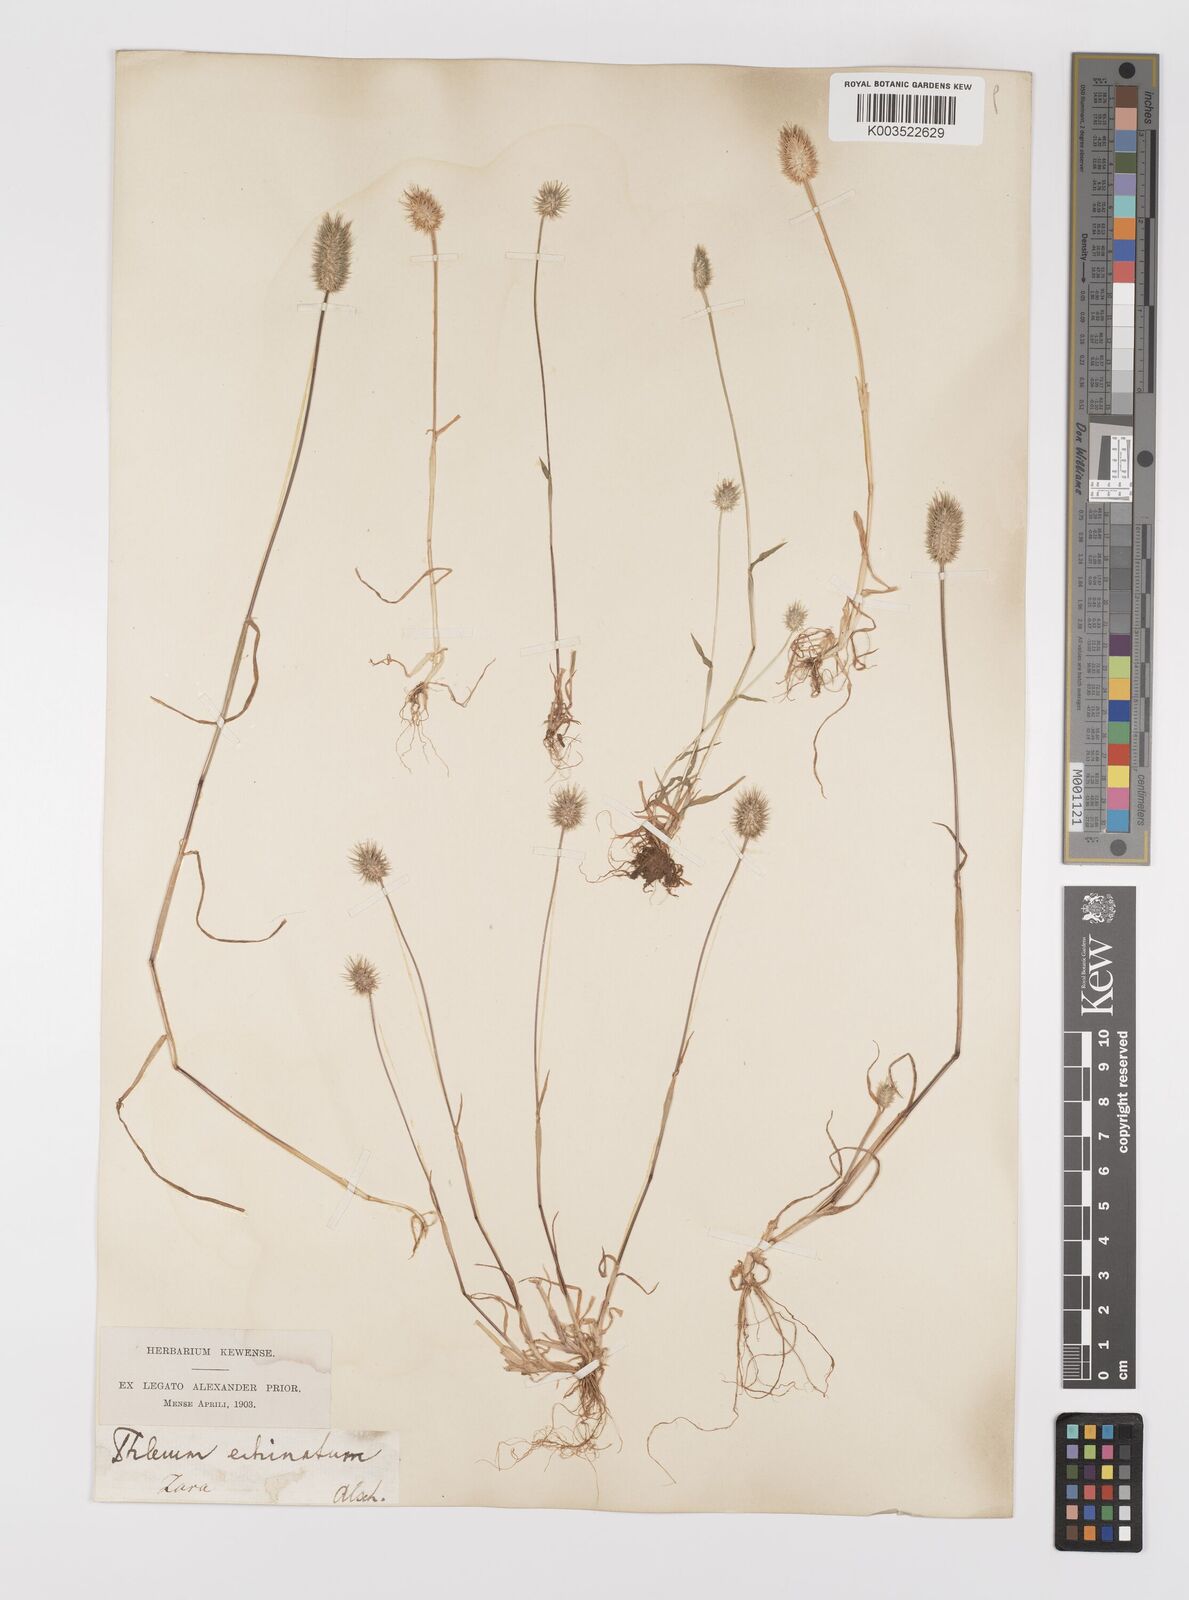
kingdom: Plantae
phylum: Tracheophyta
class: Liliopsida
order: Poales
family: Poaceae
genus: Phleum
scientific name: Phleum echinatum
